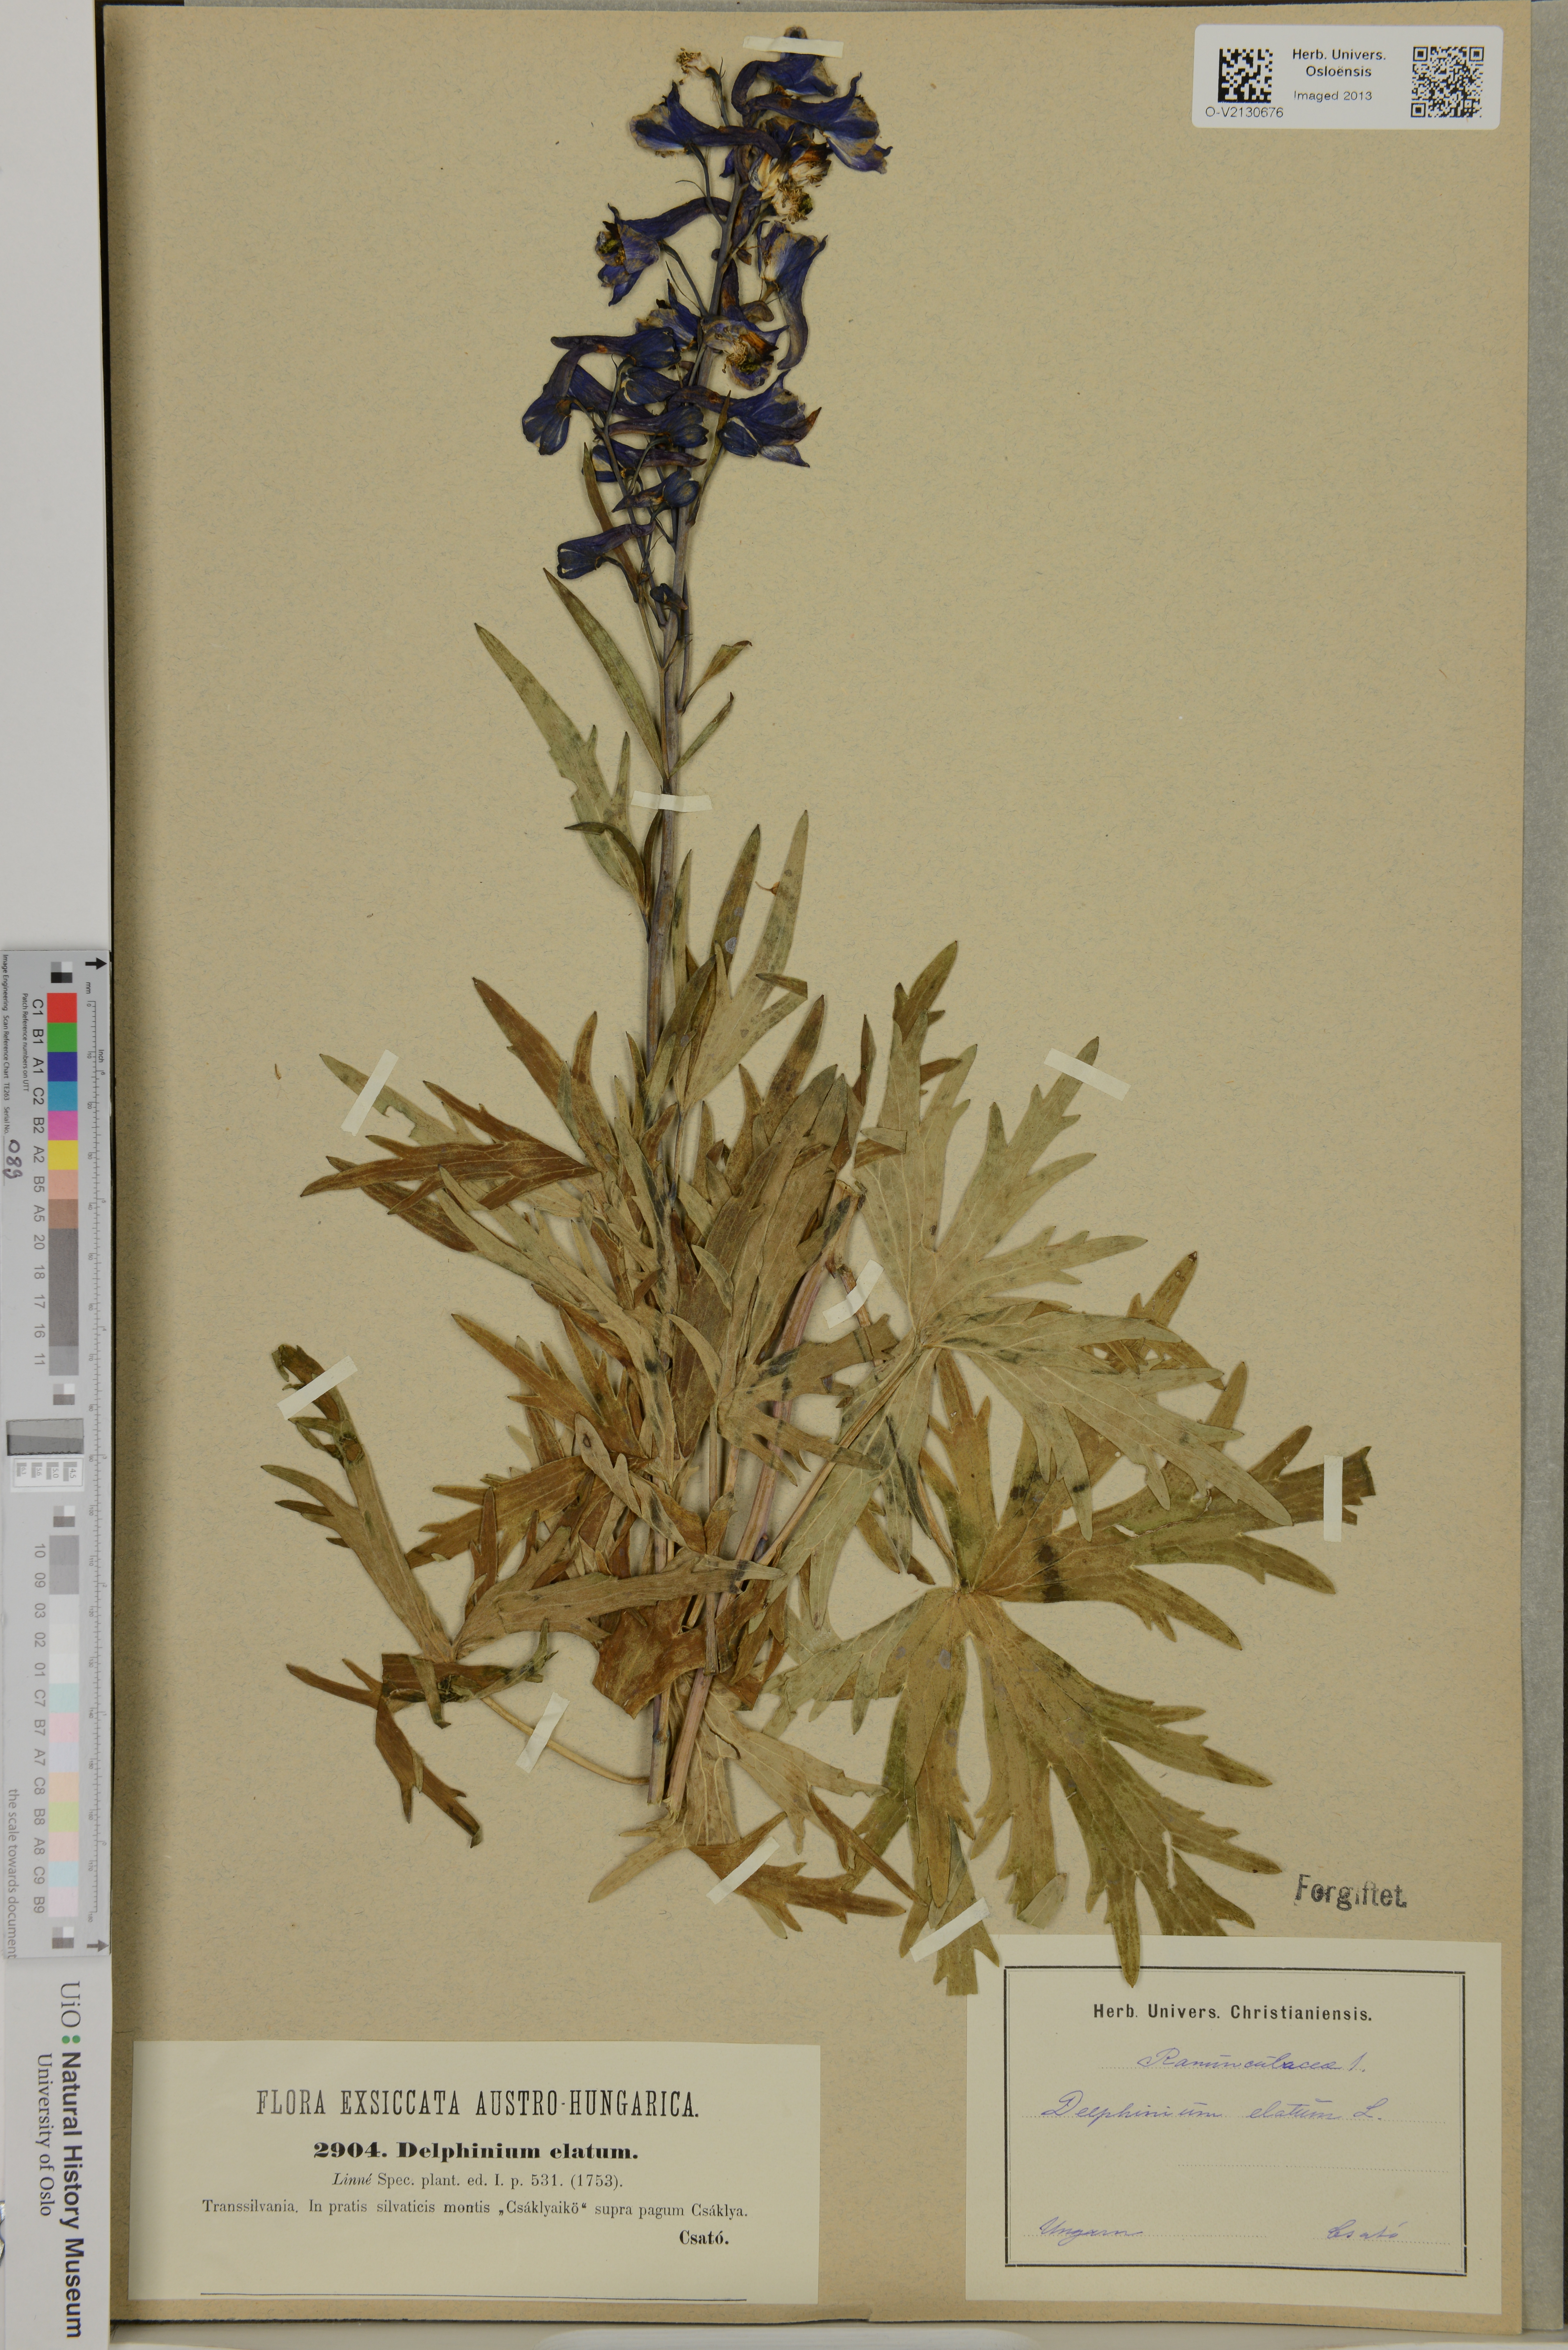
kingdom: Plantae
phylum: Tracheophyta
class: Magnoliopsida
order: Ranunculales
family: Ranunculaceae
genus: Delphinium
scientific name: Delphinium elatum
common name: Candle larkspur
